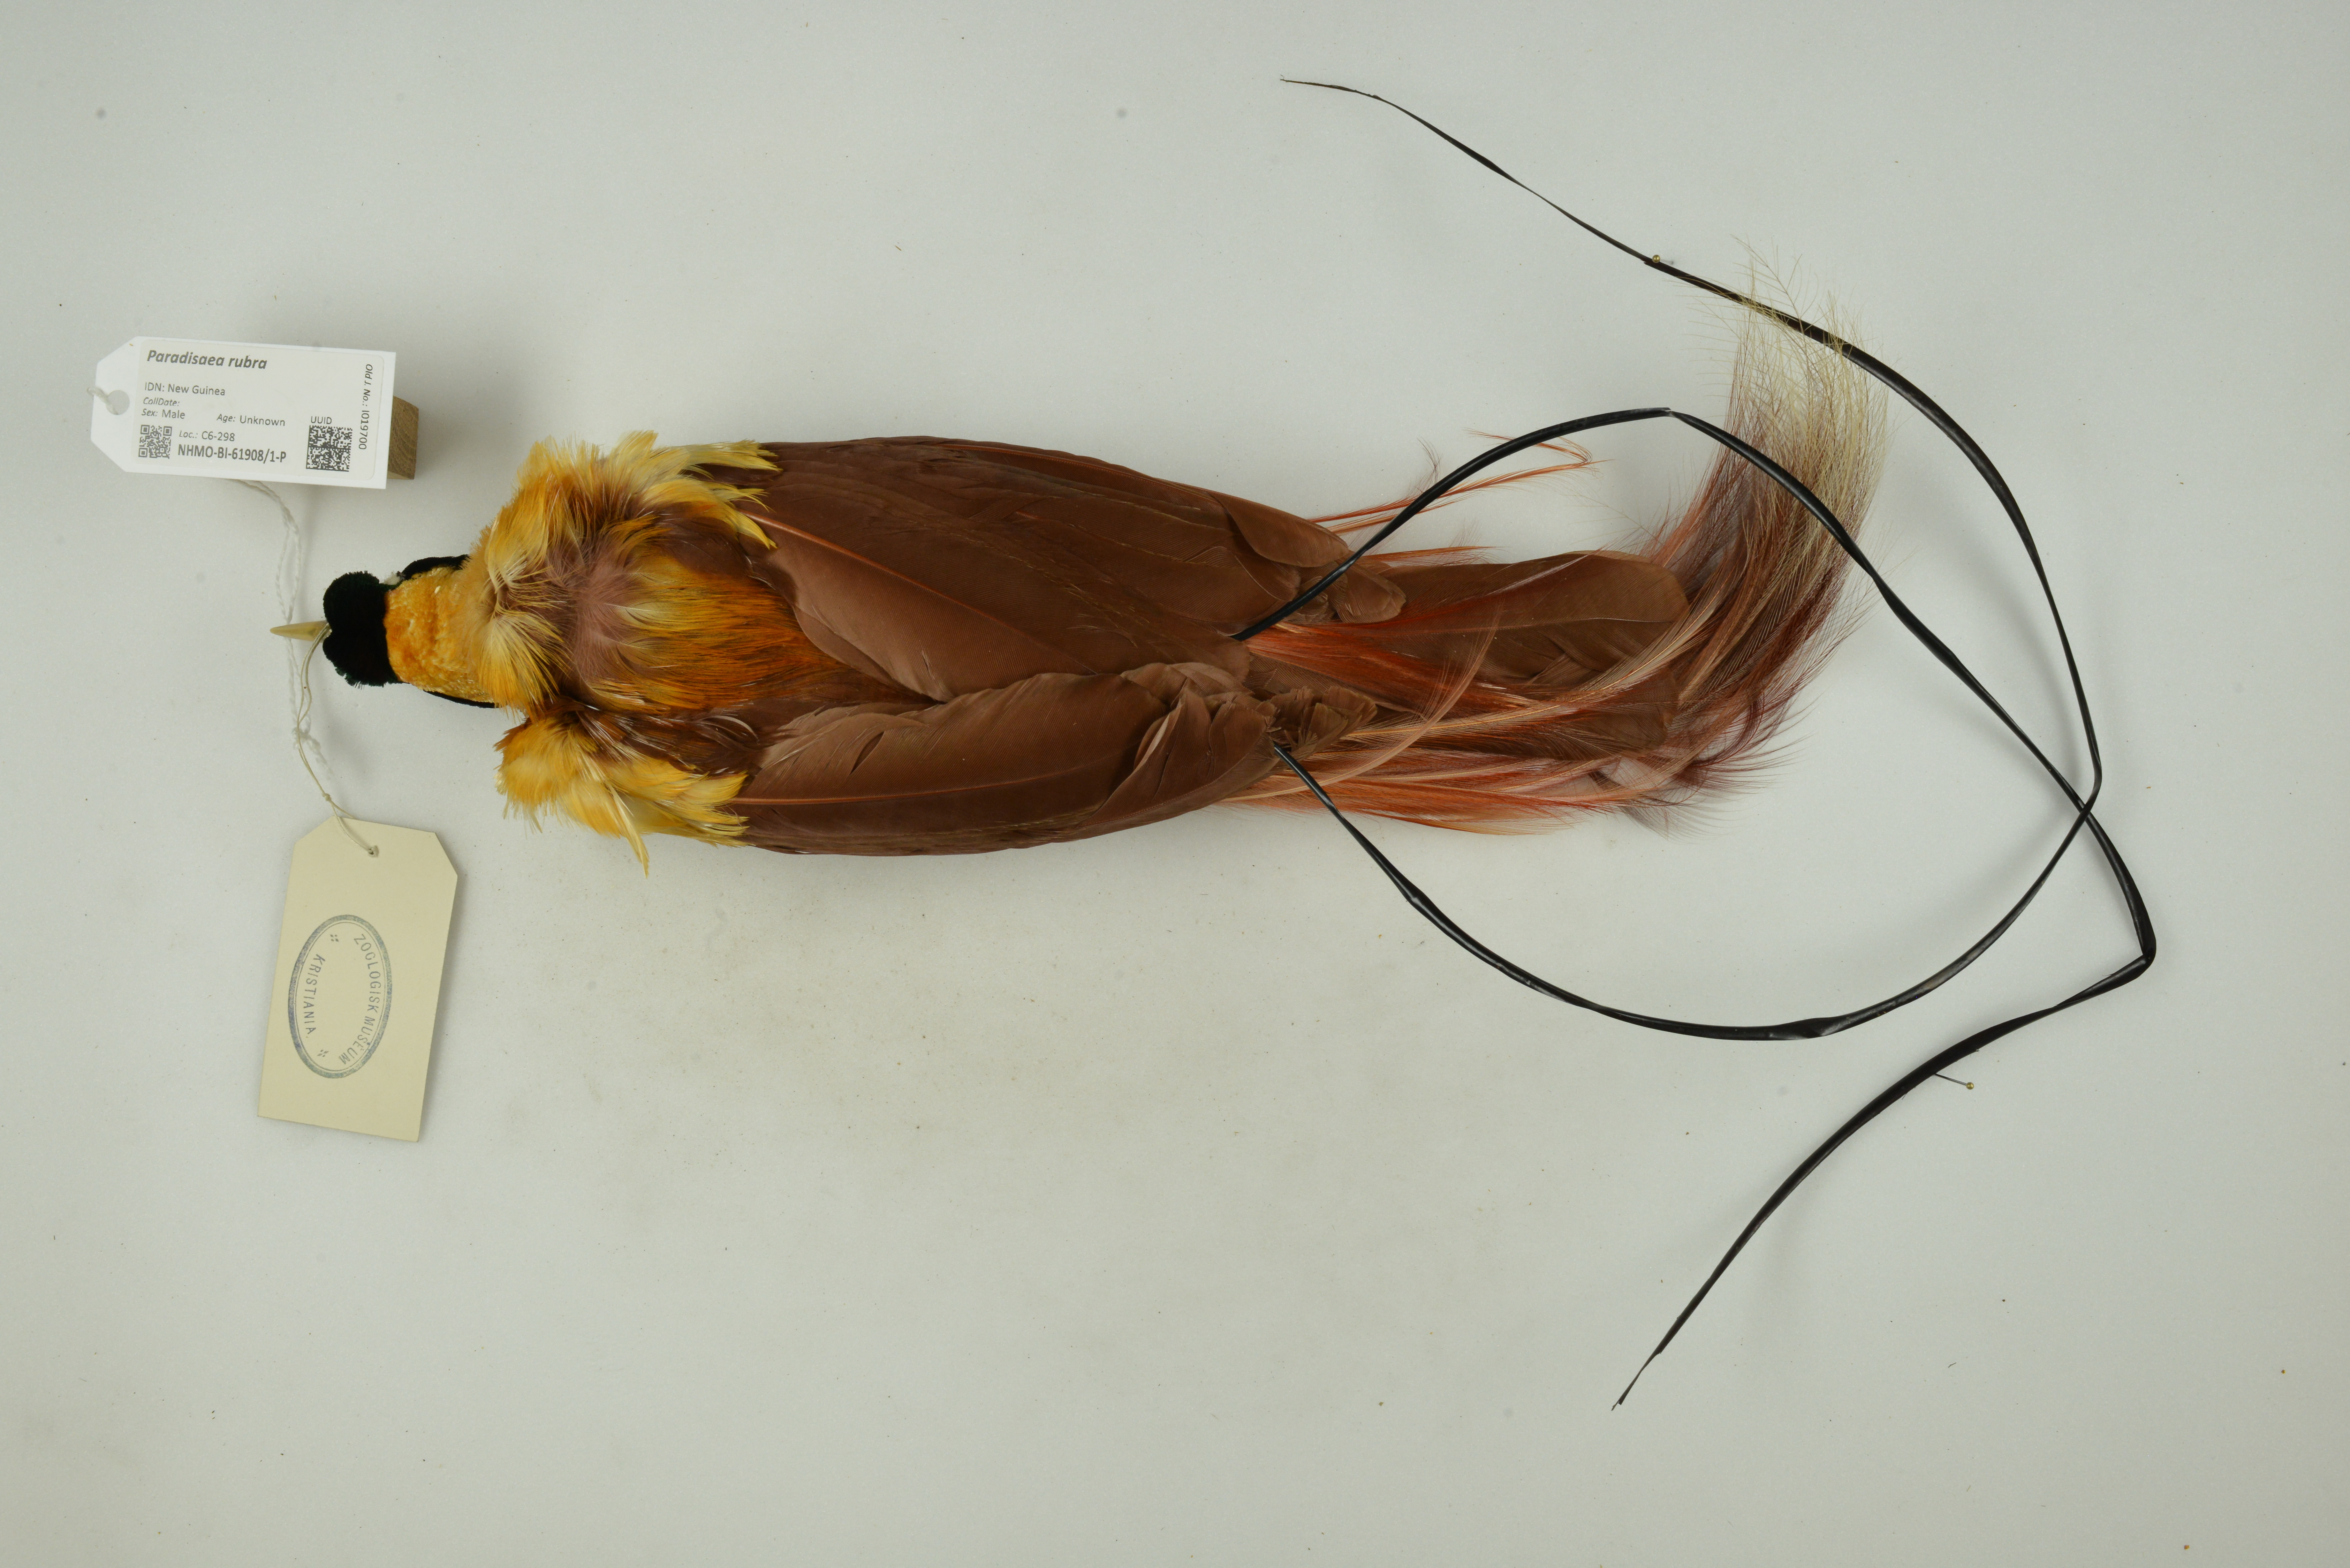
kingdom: Animalia
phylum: Chordata
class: Aves
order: Passeriformes
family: Paradisaeidae
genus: Paradisaea
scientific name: Paradisaea rubra
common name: Red bird-of-paradise
